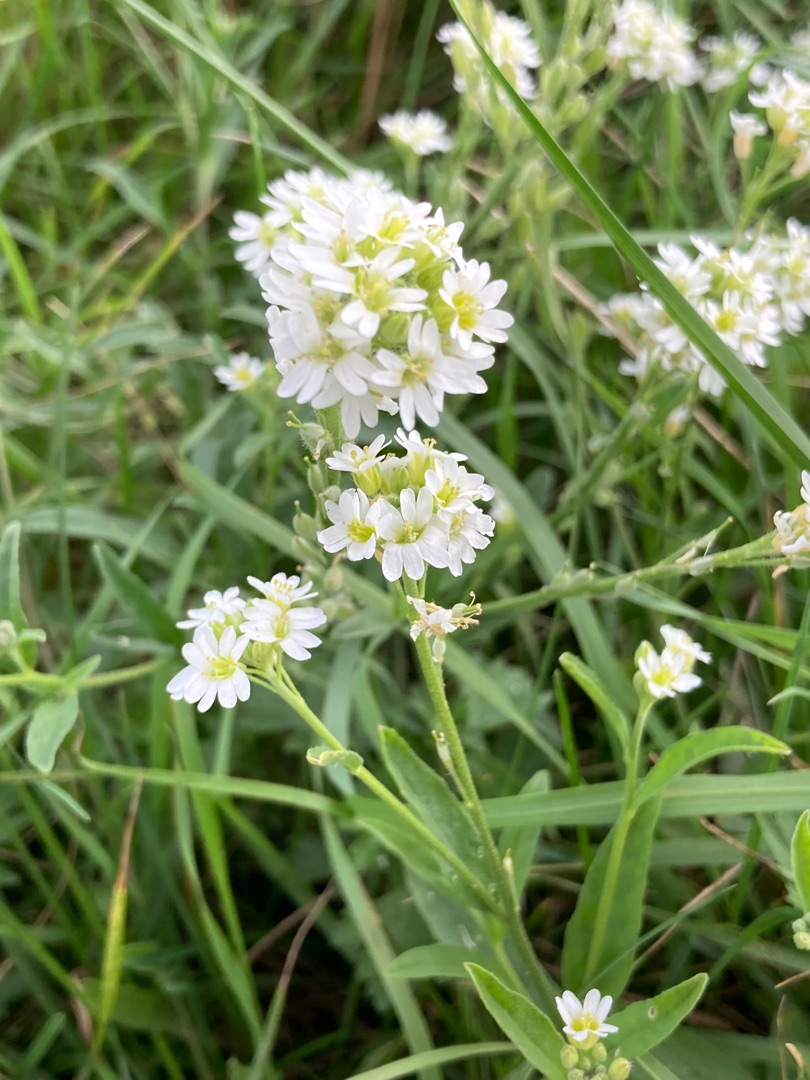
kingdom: Plantae
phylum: Tracheophyta
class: Magnoliopsida
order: Brassicales
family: Brassicaceae
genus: Berteroa
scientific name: Berteroa incana
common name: Kløvplade
